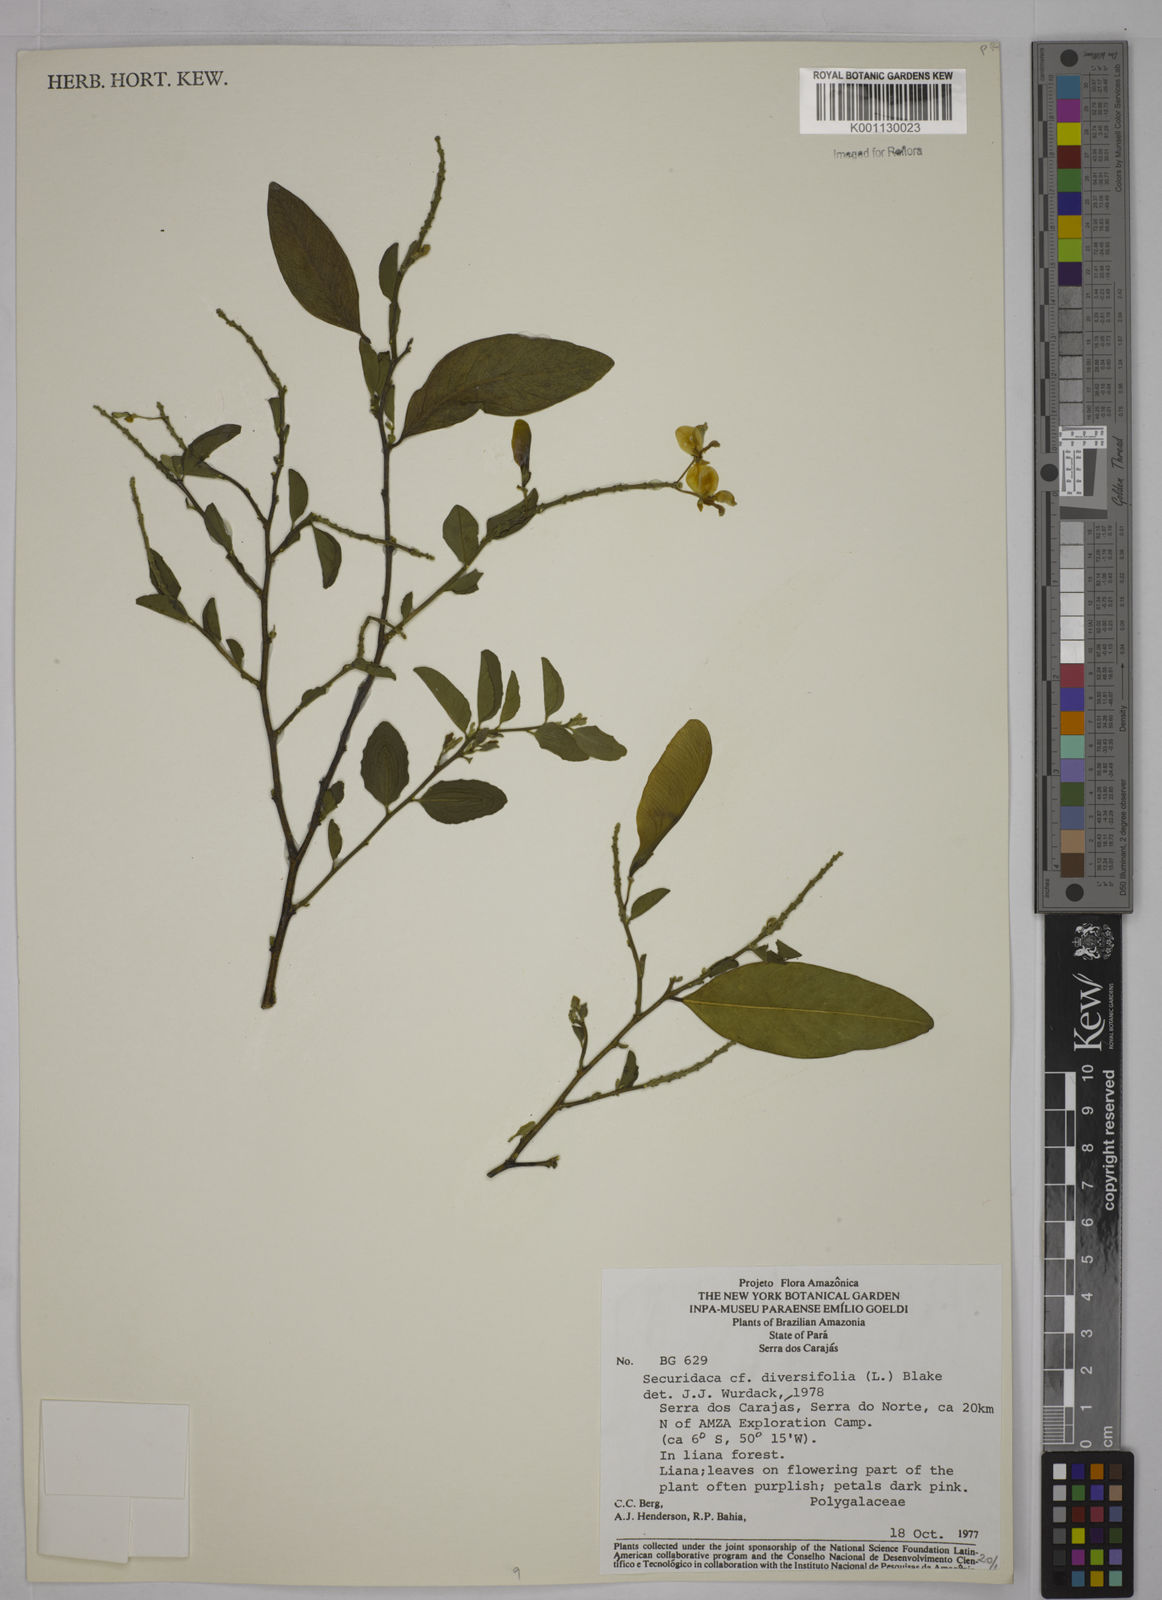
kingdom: Plantae
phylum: Tracheophyta
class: Magnoliopsida
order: Fabales
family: Polygalaceae
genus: Securidaca
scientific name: Securidaca diversifolia
